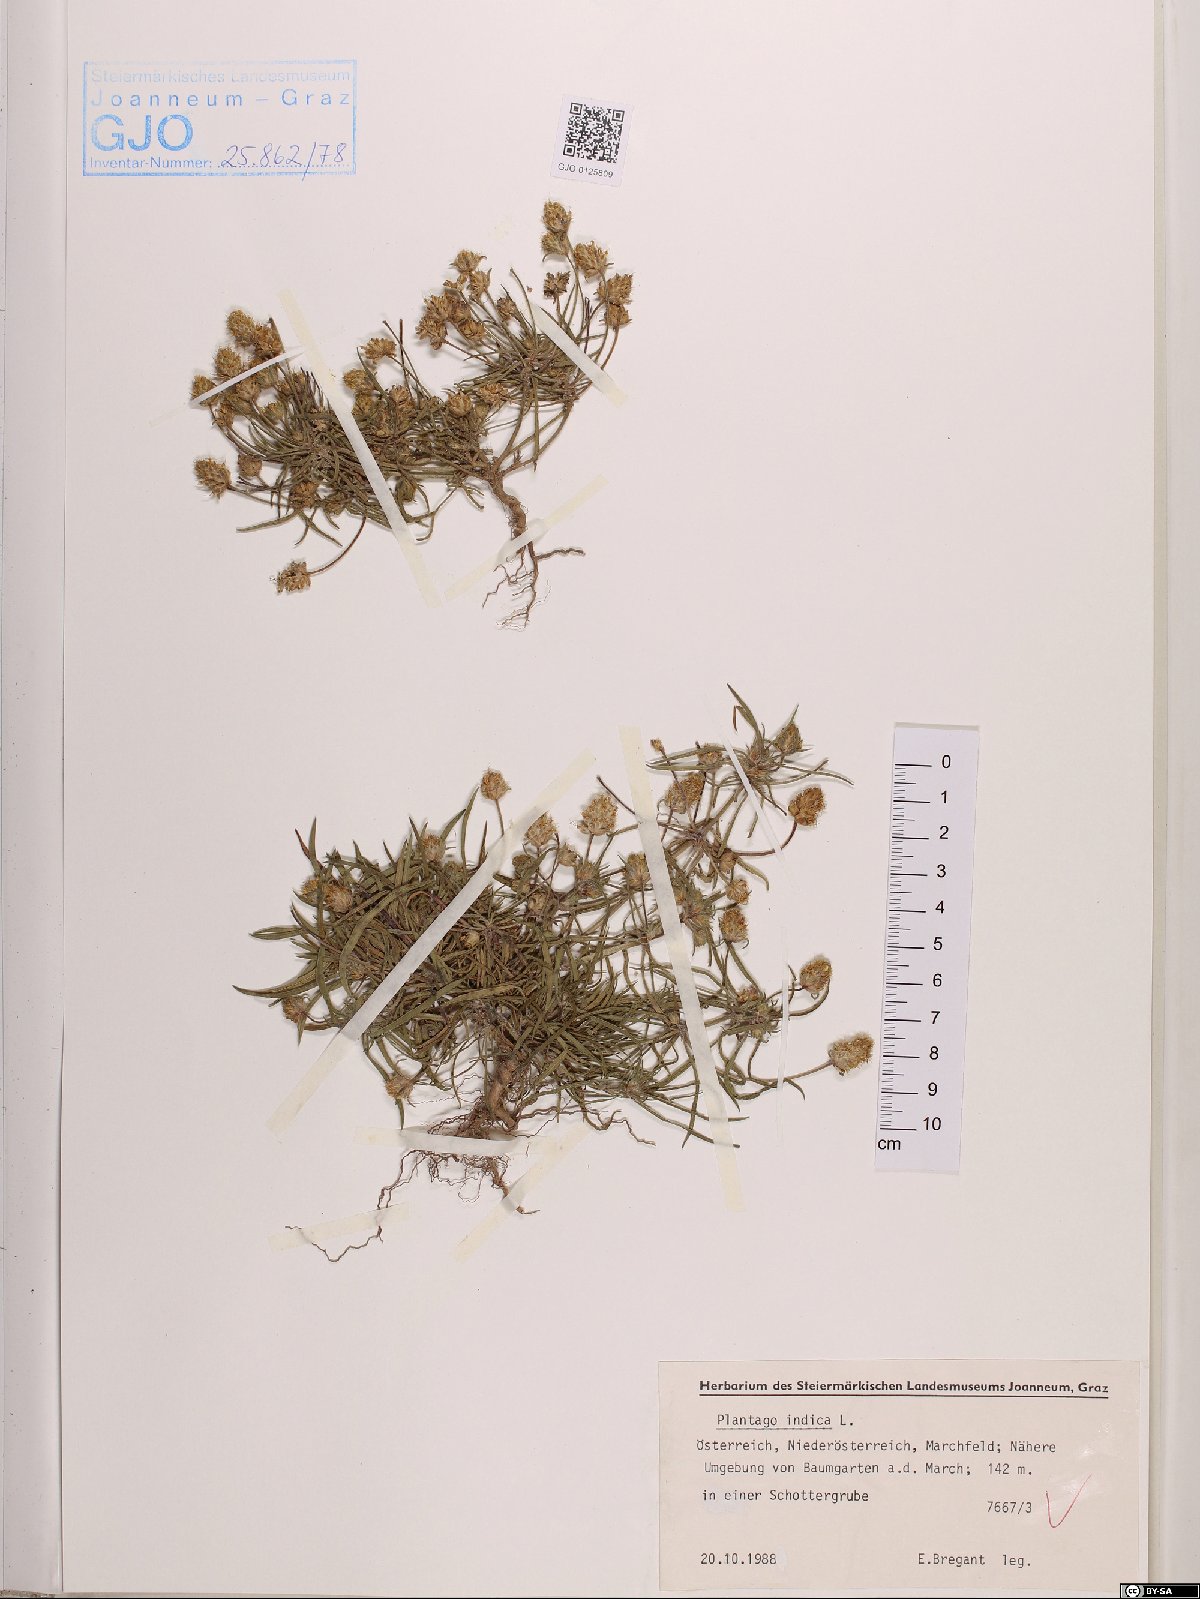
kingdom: Plantae
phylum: Tracheophyta
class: Magnoliopsida
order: Lamiales
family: Plantaginaceae
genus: Plantago
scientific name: Plantago arenaria
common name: Branched plantain
